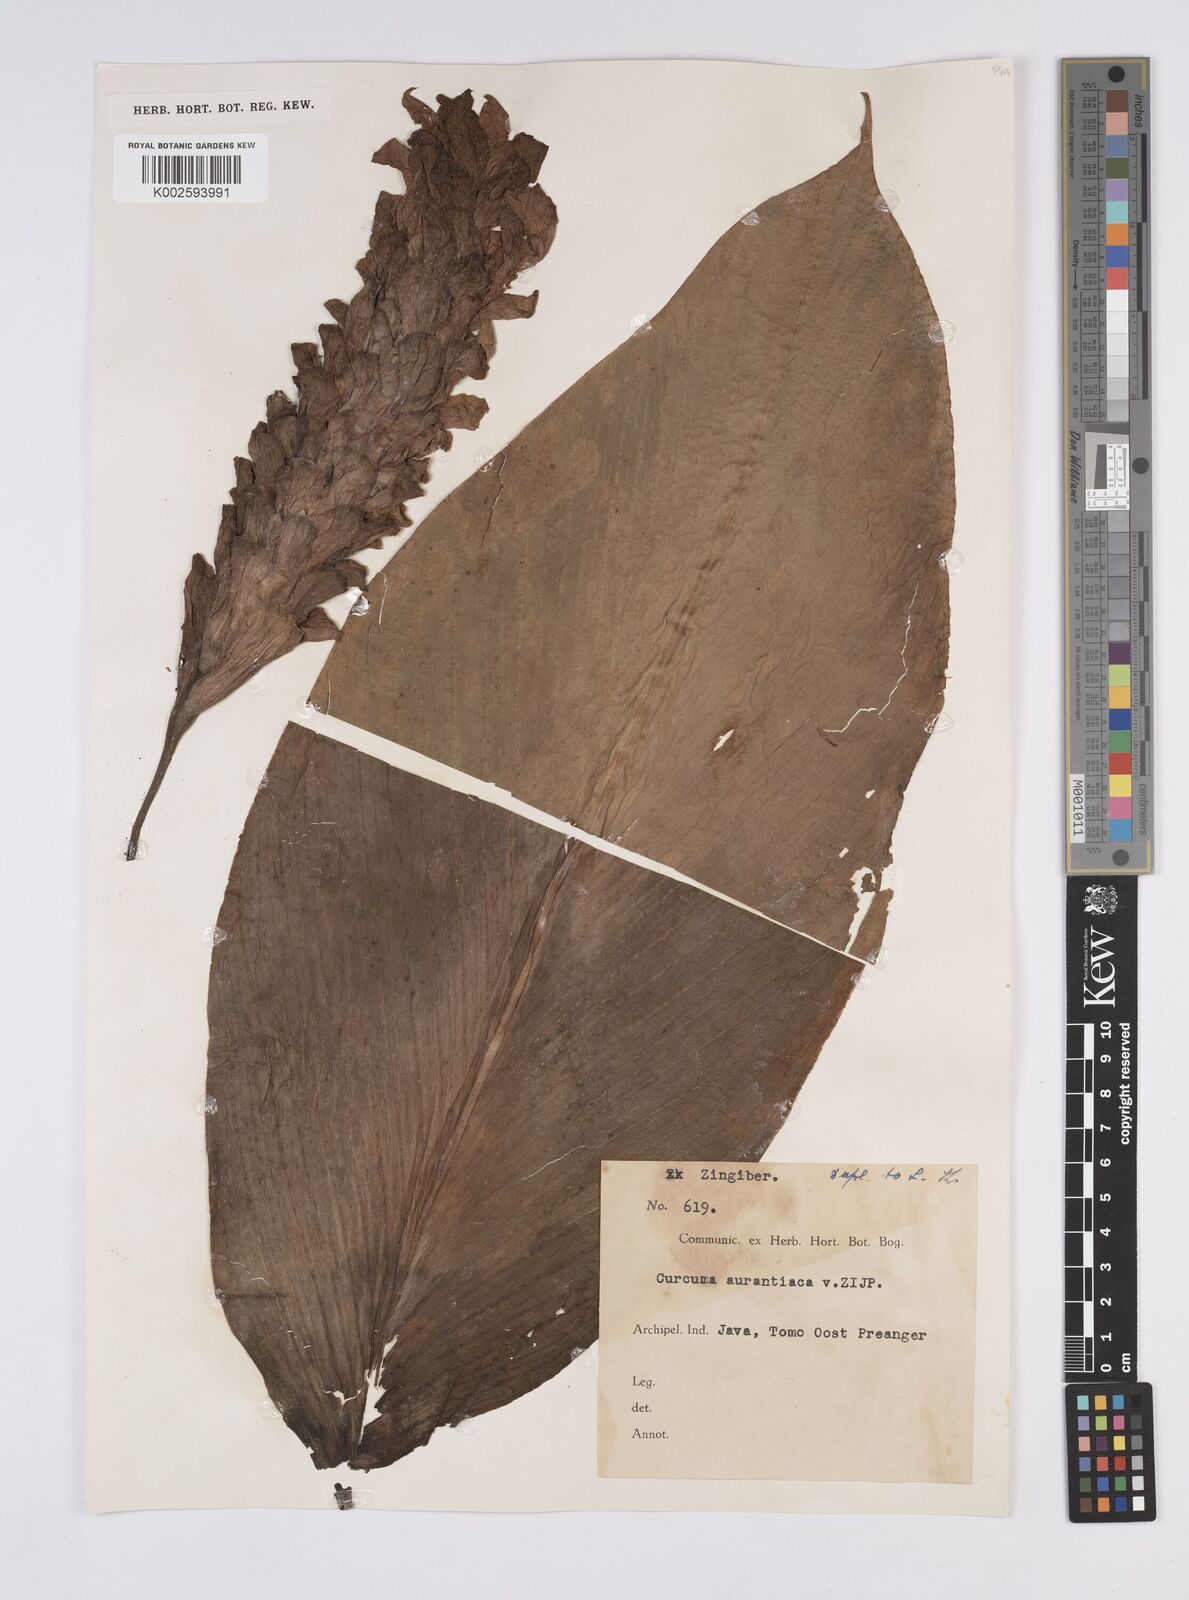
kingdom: Plantae
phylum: Tracheophyta
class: Liliopsida
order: Zingiberales
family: Zingiberaceae
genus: Curcuma
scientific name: Curcuma aurantiaca
